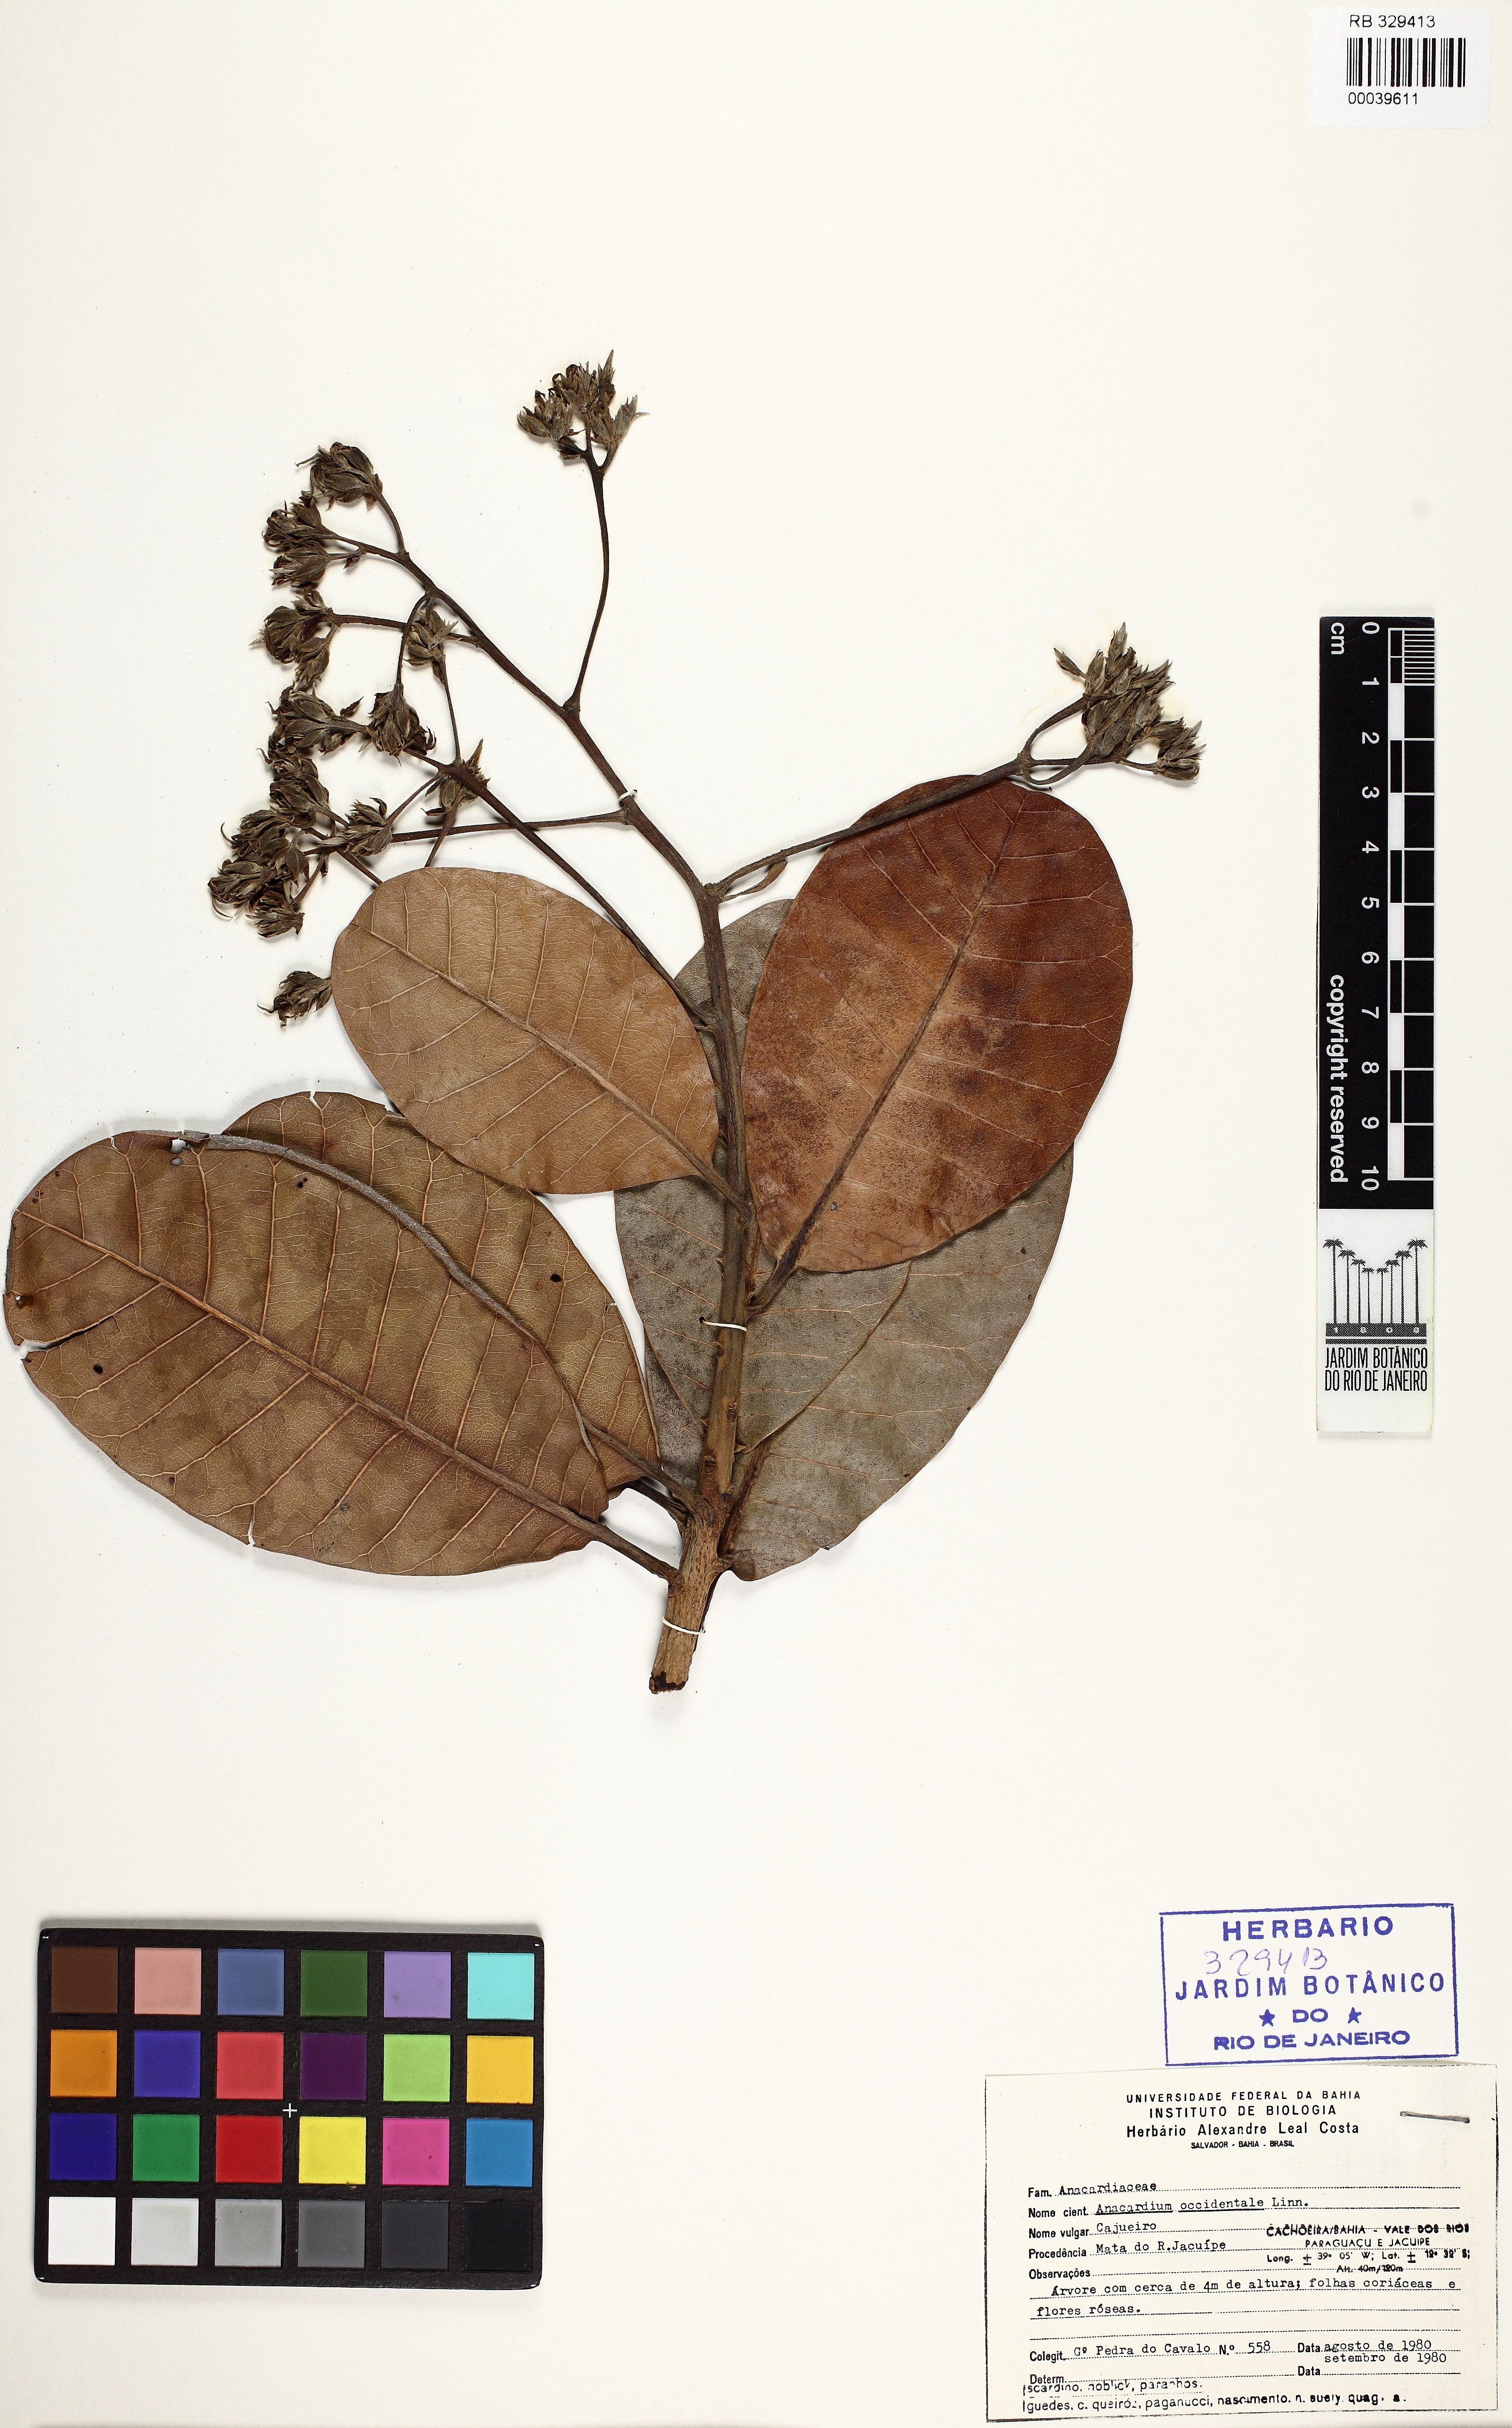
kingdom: Plantae
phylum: Tracheophyta
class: Magnoliopsida
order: Sapindales
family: Anacardiaceae
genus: Anacardium
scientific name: Anacardium occidentale
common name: Cashew
